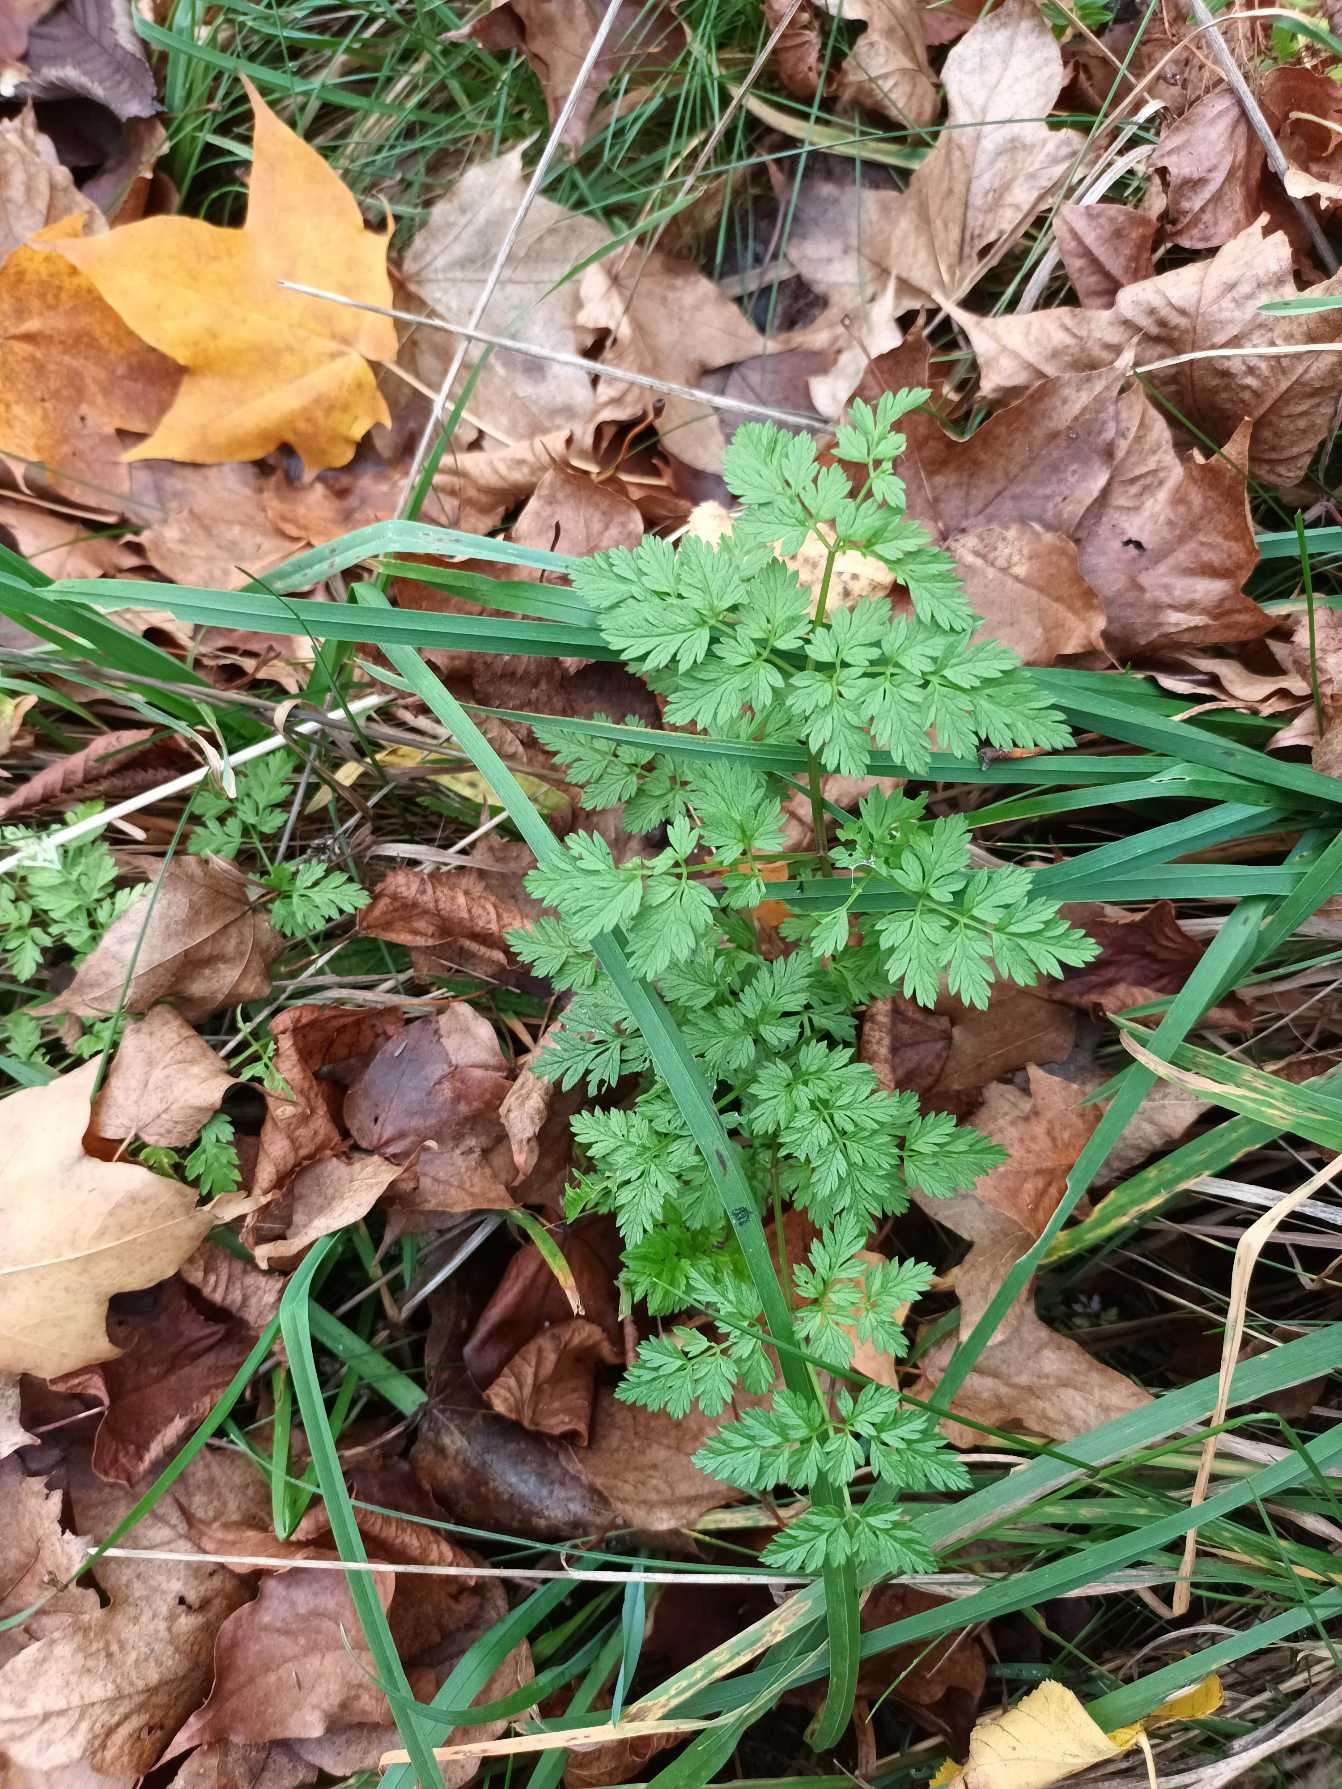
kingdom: Plantae
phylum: Tracheophyta
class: Magnoliopsida
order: Apiales
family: Apiaceae
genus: Anthriscus
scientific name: Anthriscus sylvestris
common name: Vild kørvel
